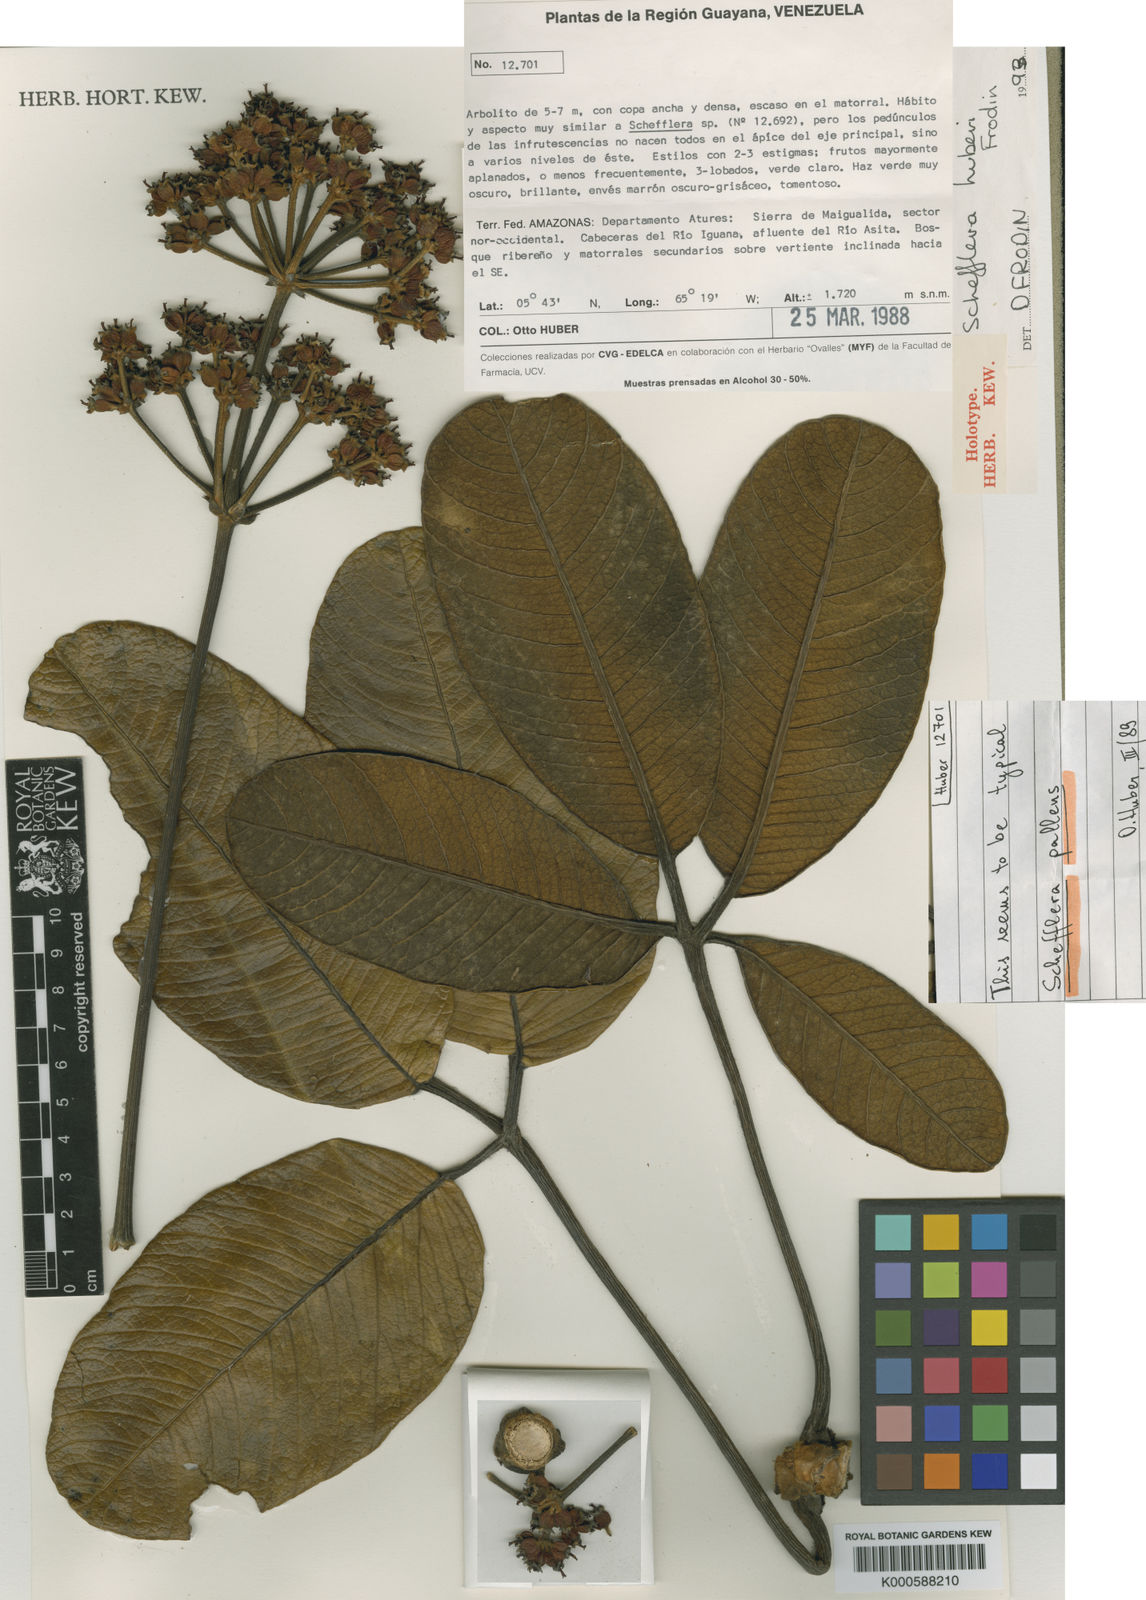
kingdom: Plantae
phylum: Tracheophyta
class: Magnoliopsida
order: Apiales
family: Araliaceae
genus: Crepinella
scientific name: Crepinella
